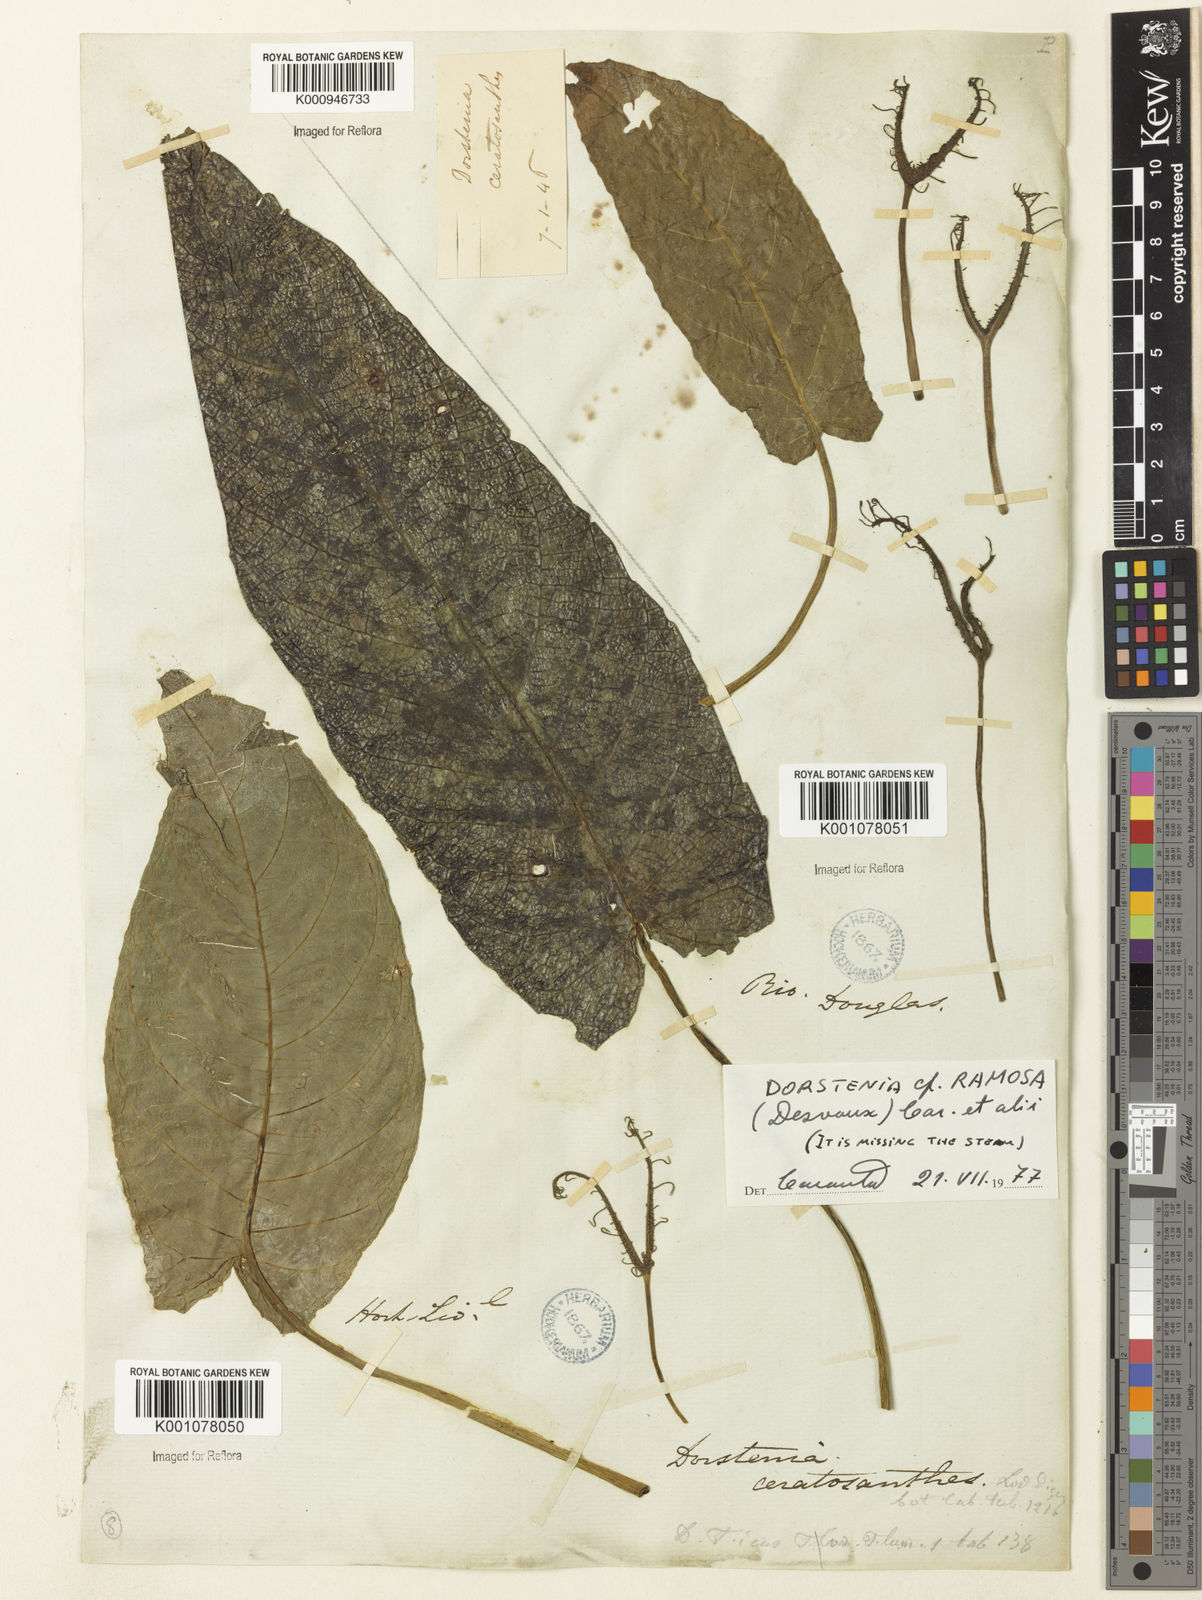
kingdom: Plantae
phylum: Tracheophyta
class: Magnoliopsida
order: Rosales
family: Moraceae
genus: Dorstenia
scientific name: Dorstenia ramosa
